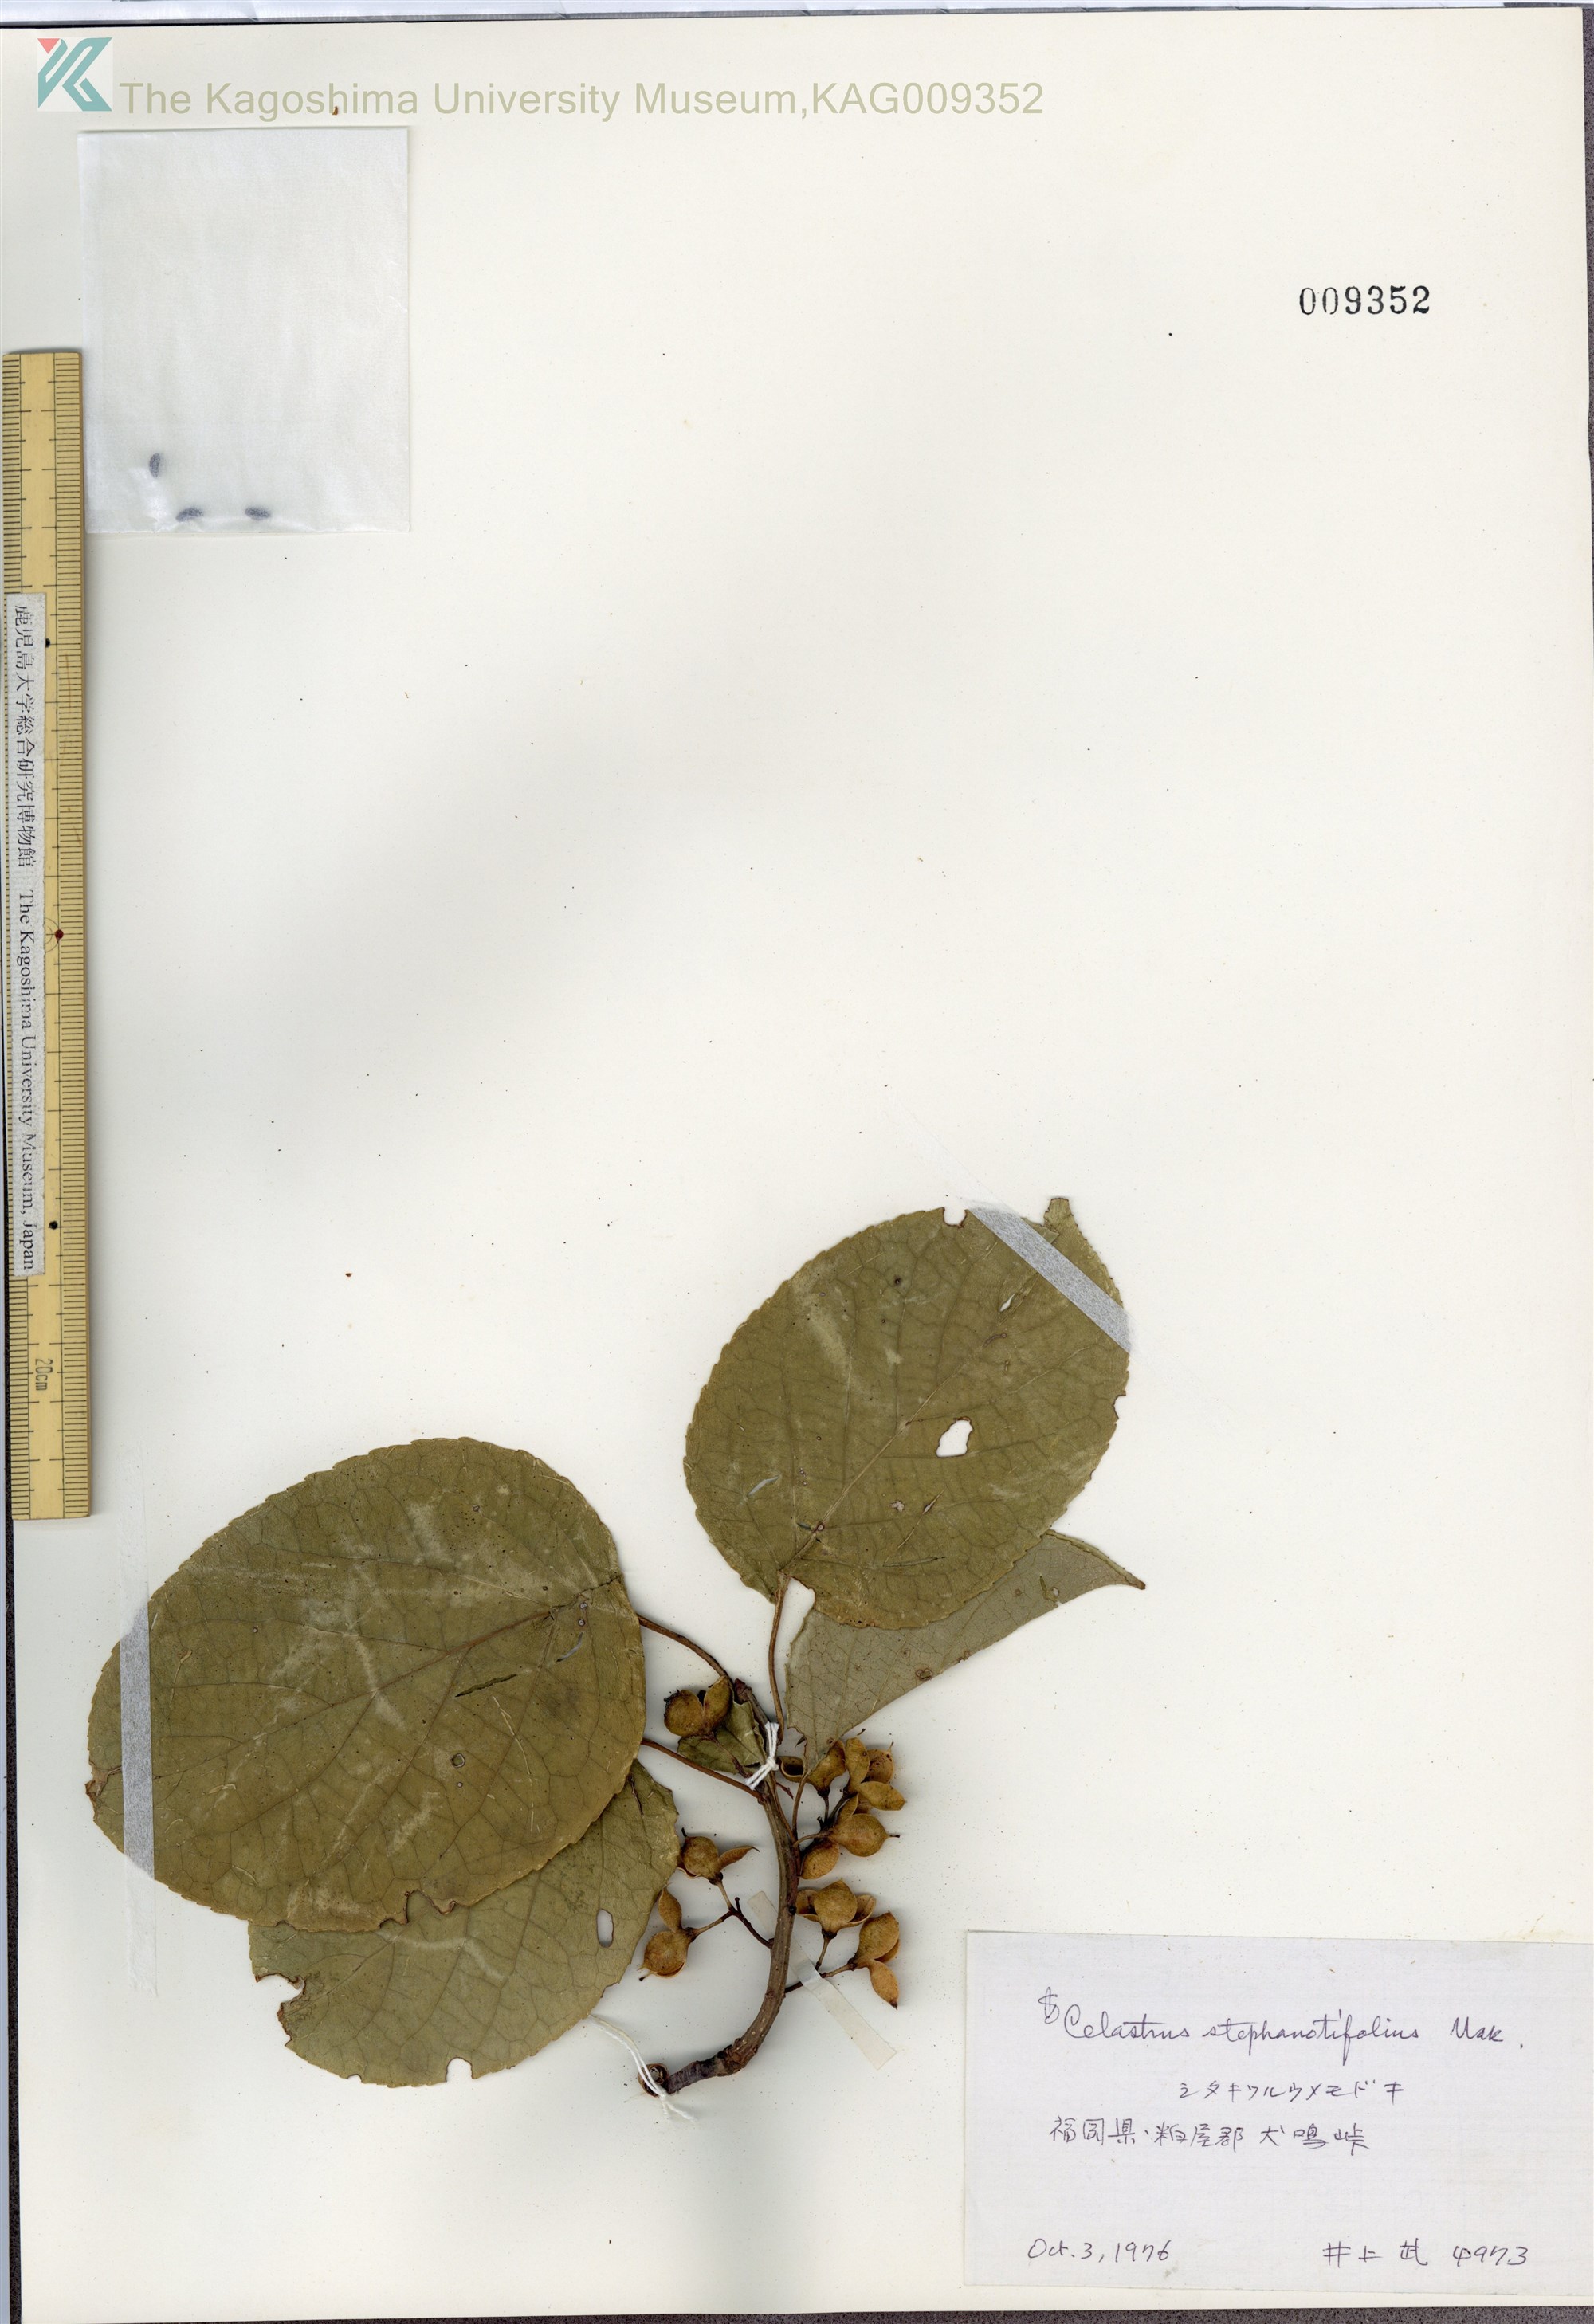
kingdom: Plantae
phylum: Tracheophyta
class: Magnoliopsida
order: Celastrales
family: Celastraceae
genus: Celastrus
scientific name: Celastrus stephanotifolius
